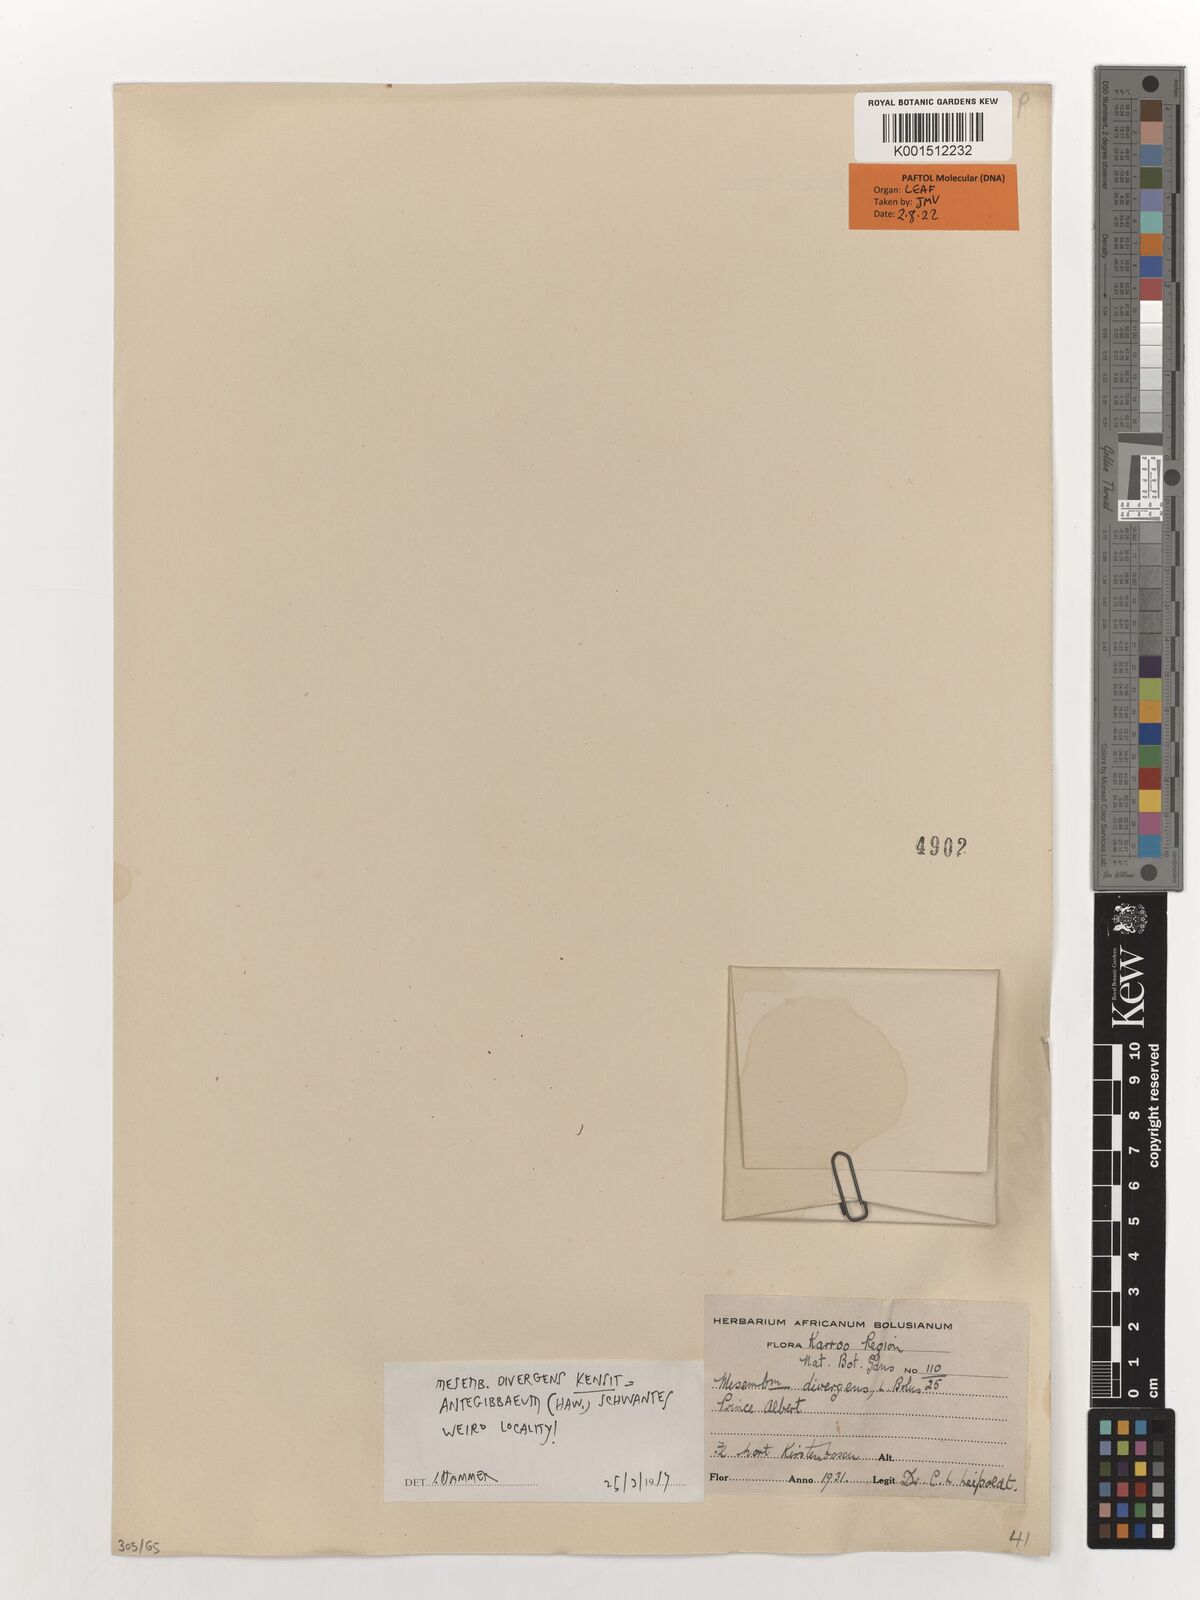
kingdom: Plantae
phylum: Tracheophyta
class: Magnoliopsida
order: Caryophyllales
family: Aizoaceae
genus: Antegibbaeum
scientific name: Antegibbaeum
